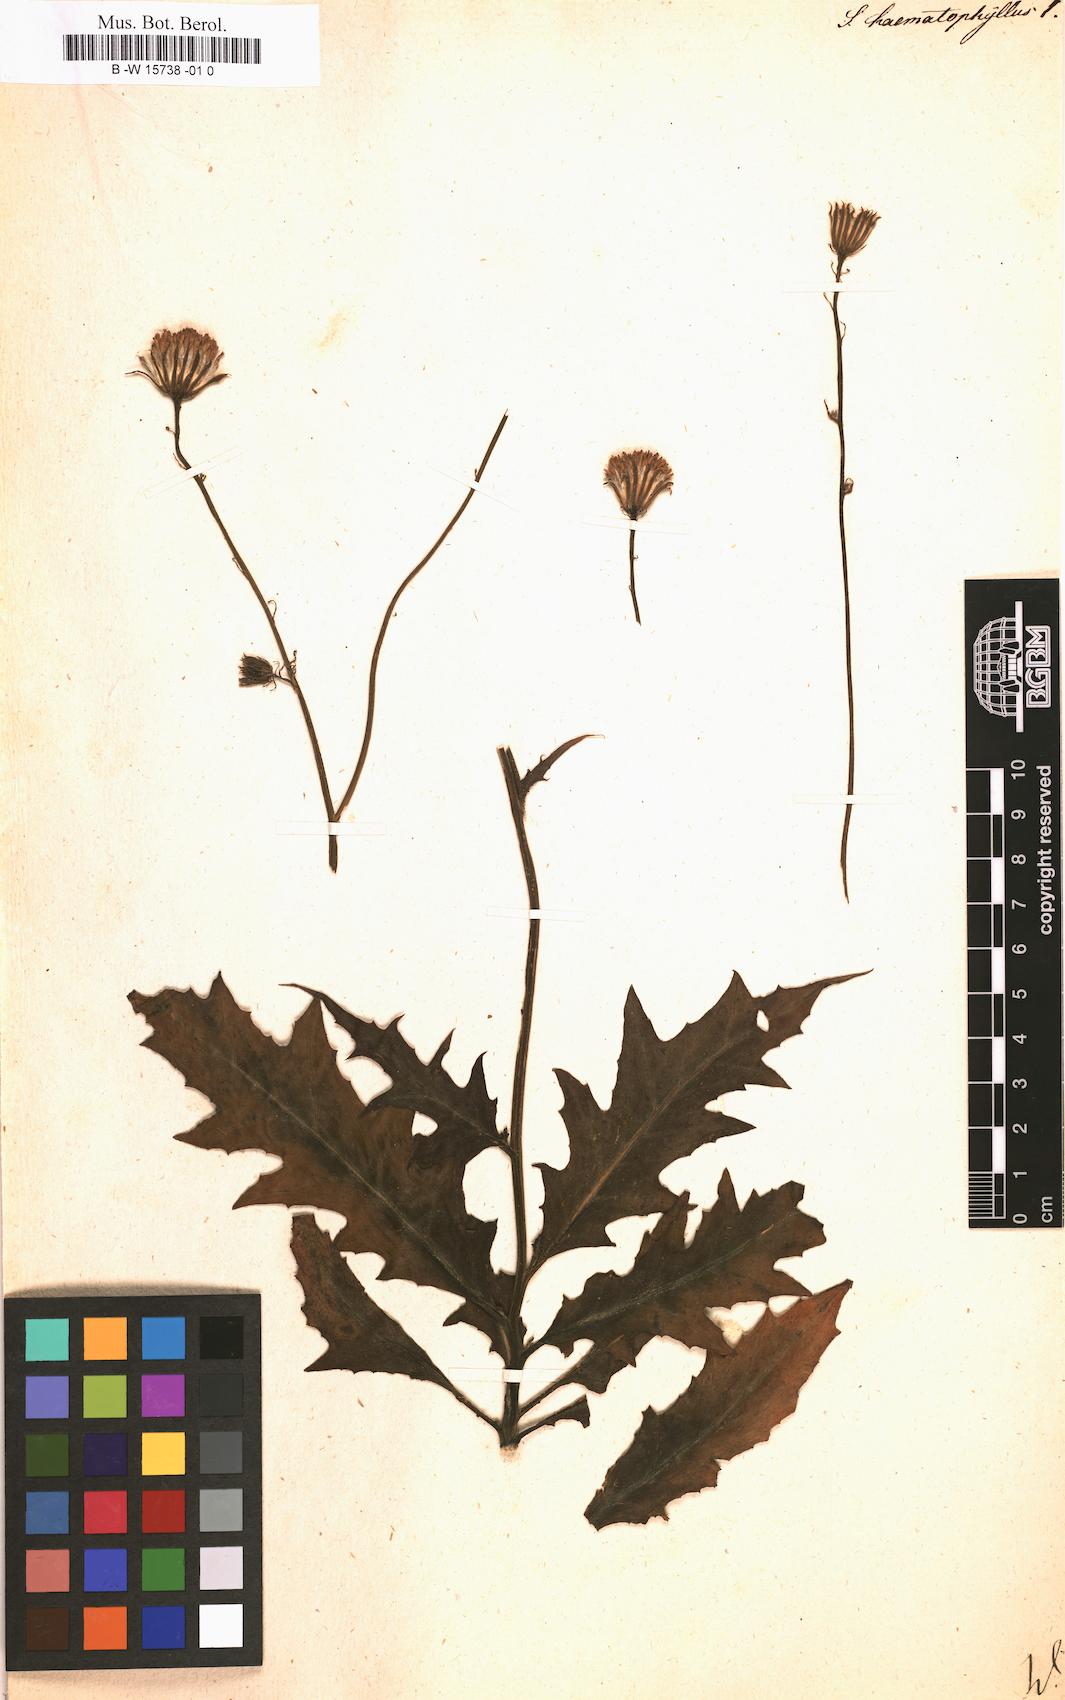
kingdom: Plantae
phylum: Tracheophyta
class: Magnoliopsida
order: Asterales
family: Asteraceae
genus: Senecio
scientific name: Senecio haematophyllus
